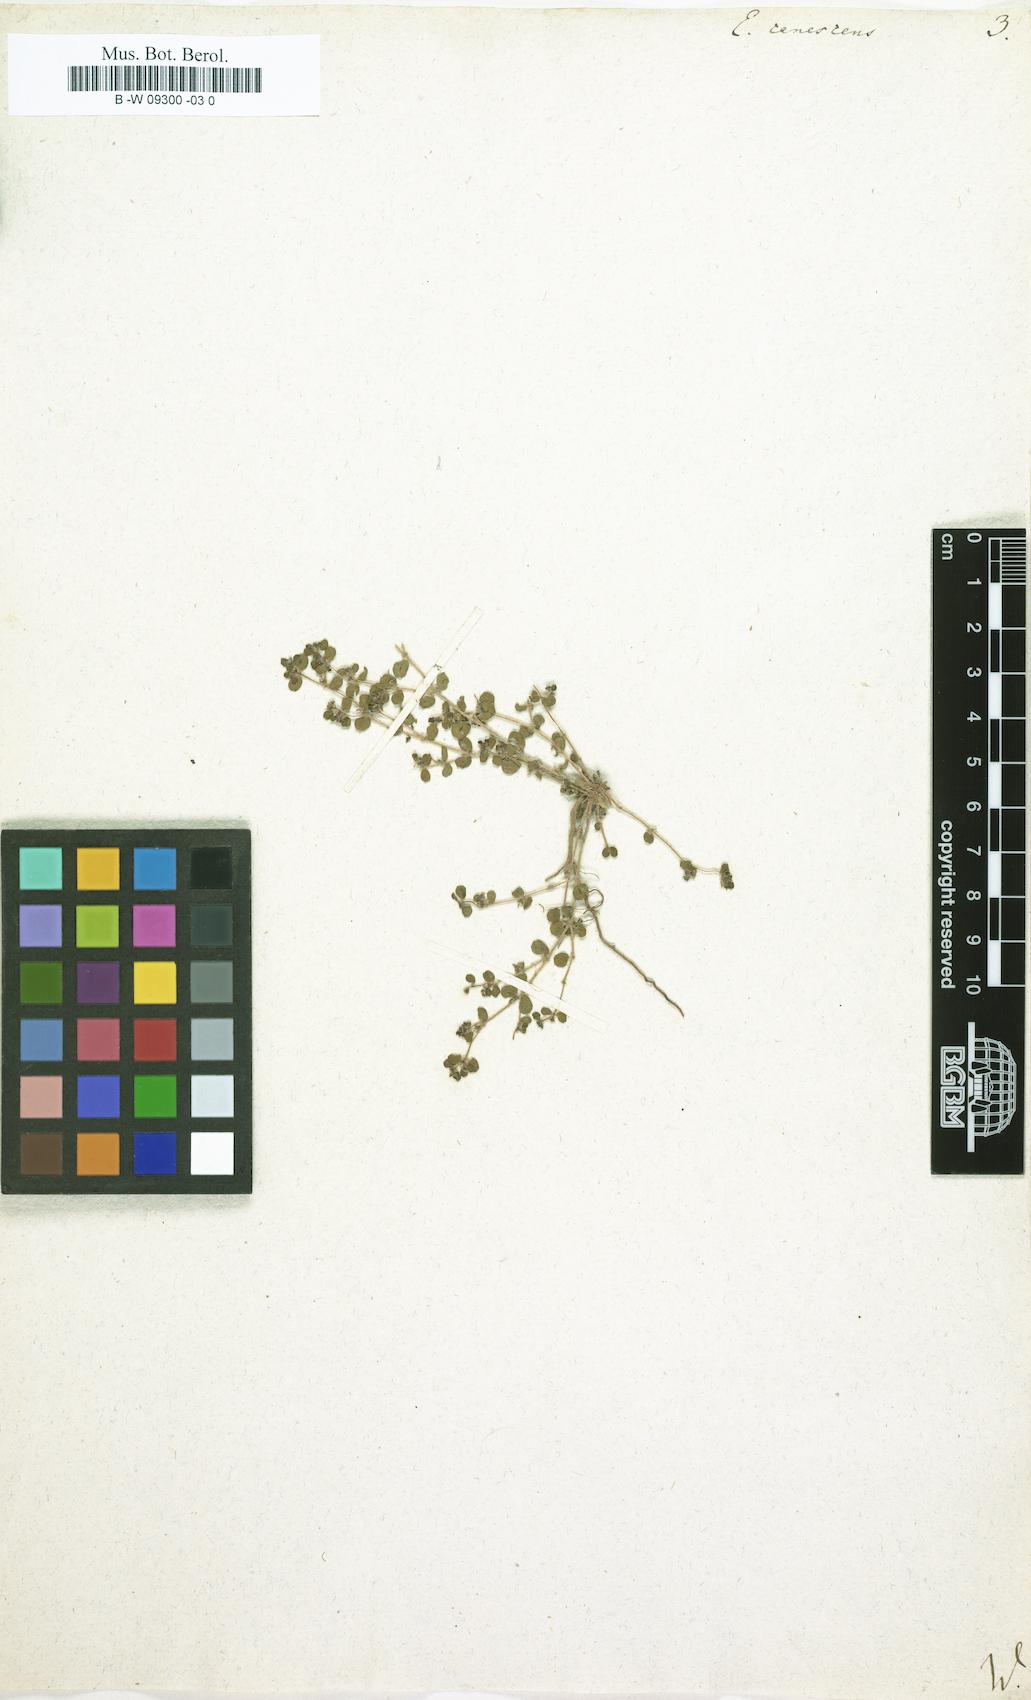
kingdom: Plantae
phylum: Tracheophyta
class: Magnoliopsida
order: Malpighiales
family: Euphorbiaceae
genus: Euphorbia
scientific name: Euphorbia chamaesyce
